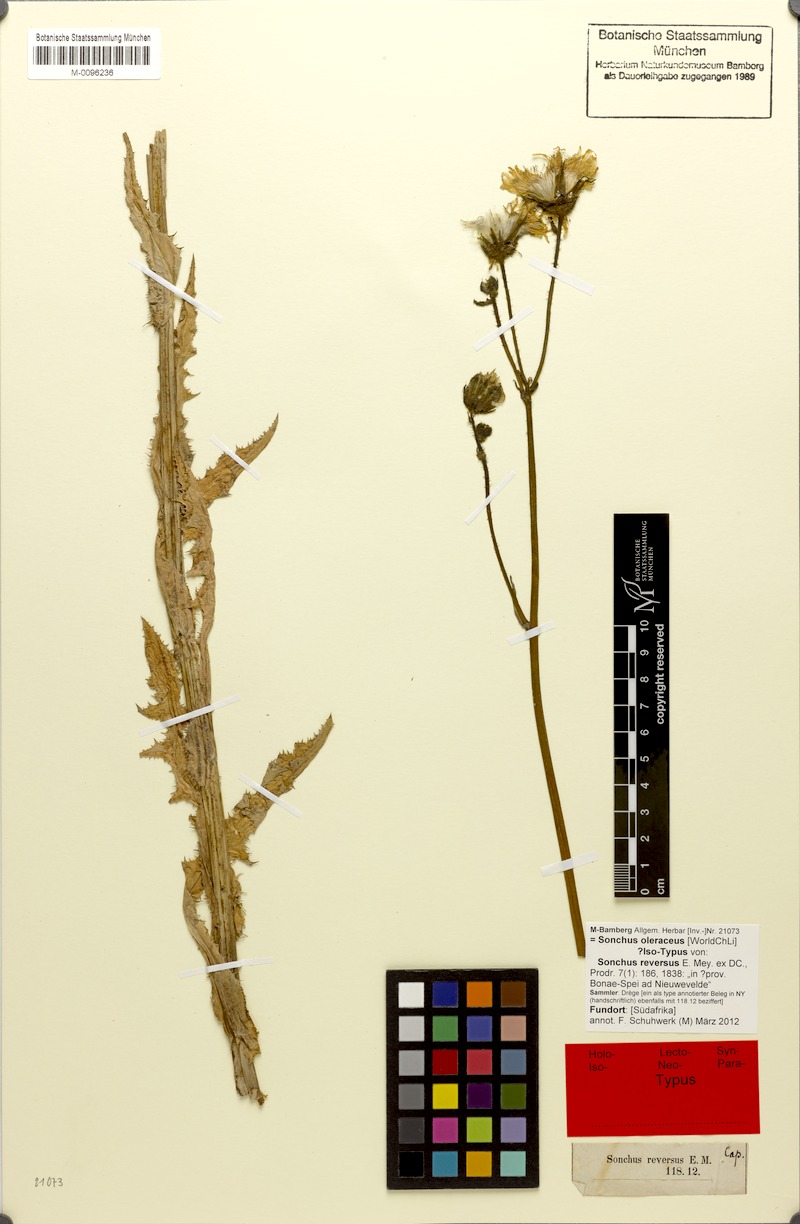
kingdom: Plantae
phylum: Tracheophyta
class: Magnoliopsida
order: Asterales
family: Asteraceae
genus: Sonchus
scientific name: Sonchus oleraceus
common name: Common sowthistle
